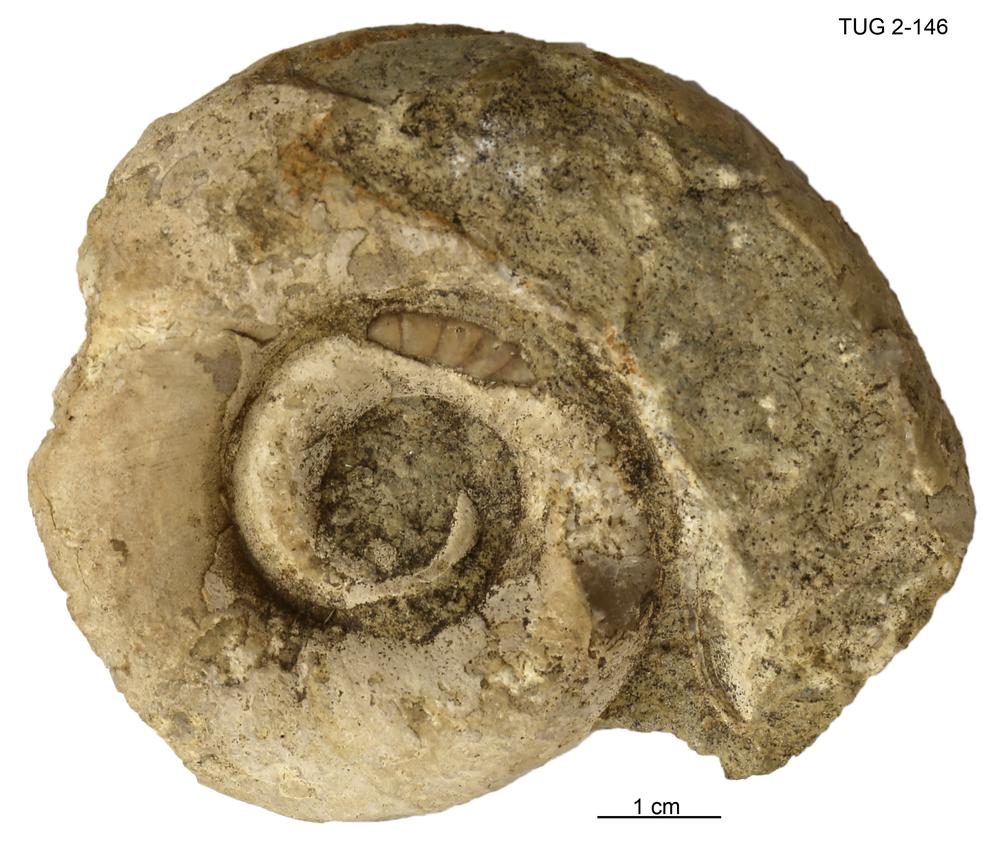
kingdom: Animalia
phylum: Mollusca
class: Cephalopoda
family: Estonioceratidae
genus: Estonioceras
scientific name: Estonioceras
